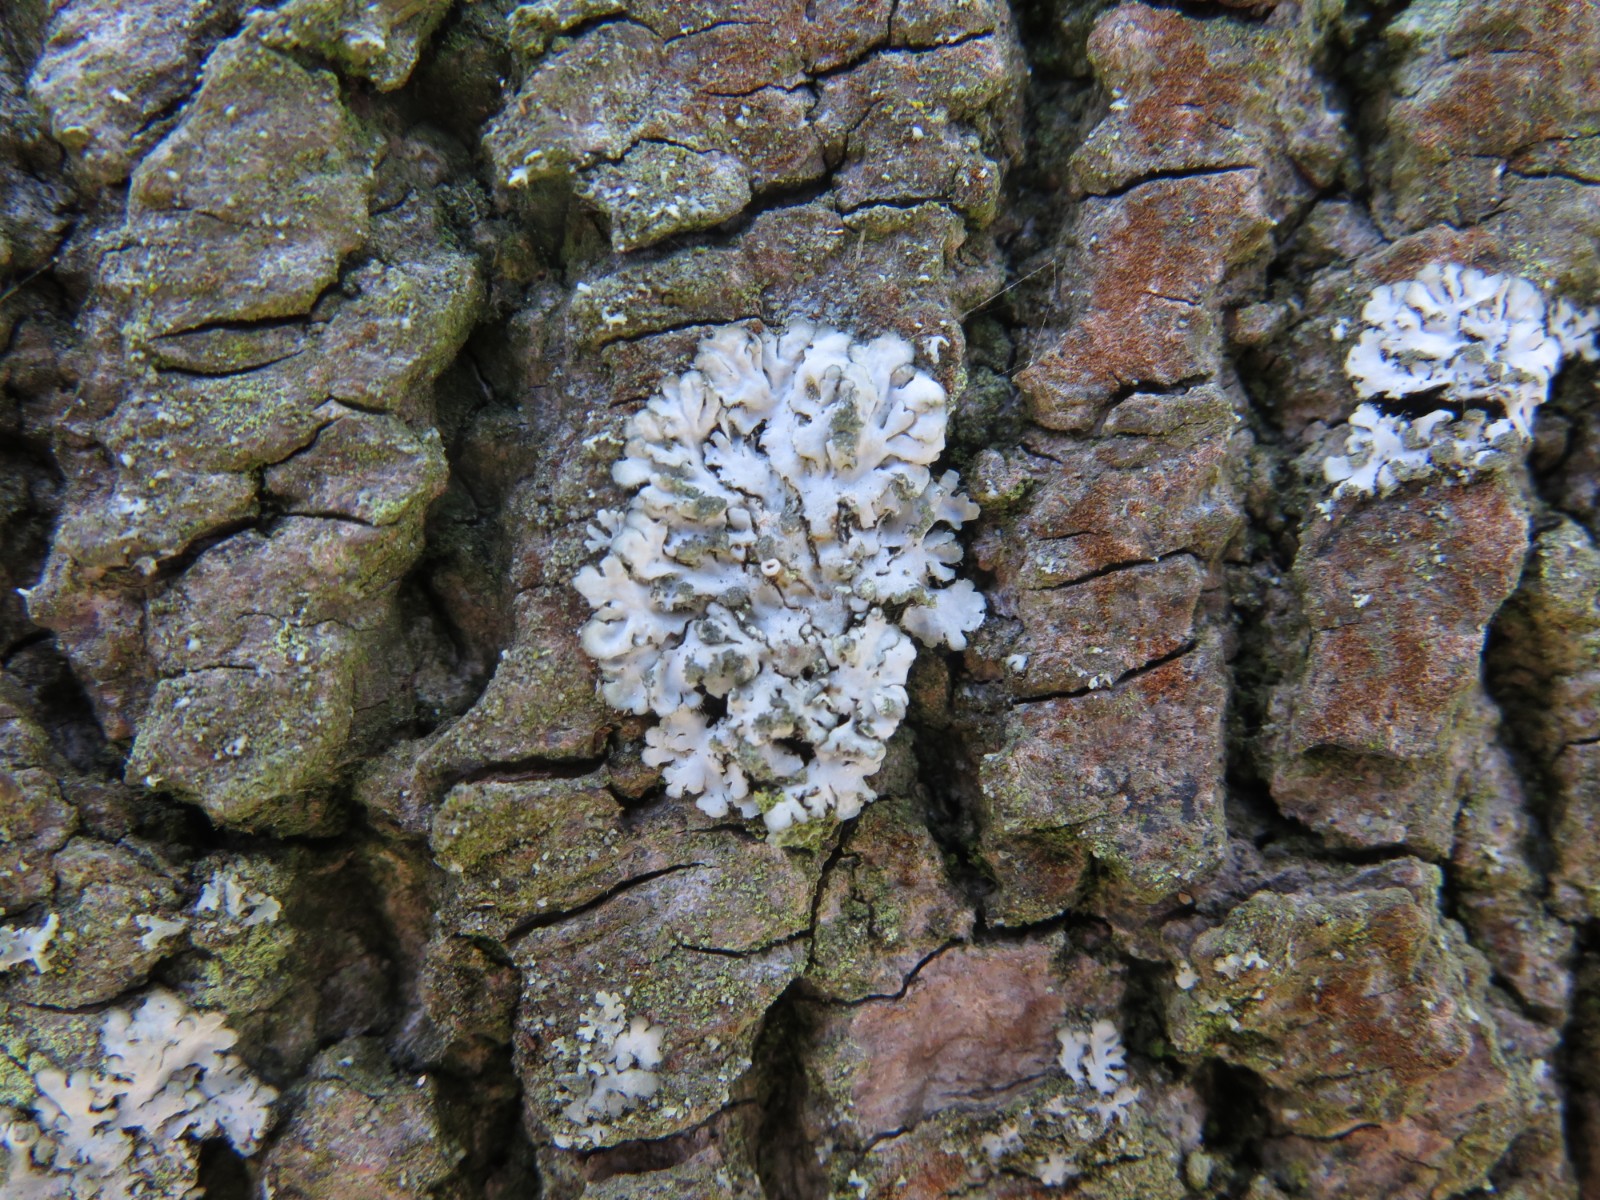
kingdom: Fungi
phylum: Ascomycota
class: Lecanoromycetes
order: Caliciales
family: Physciaceae
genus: Physcia
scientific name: Physcia caesia
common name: blågrå rosetlav
